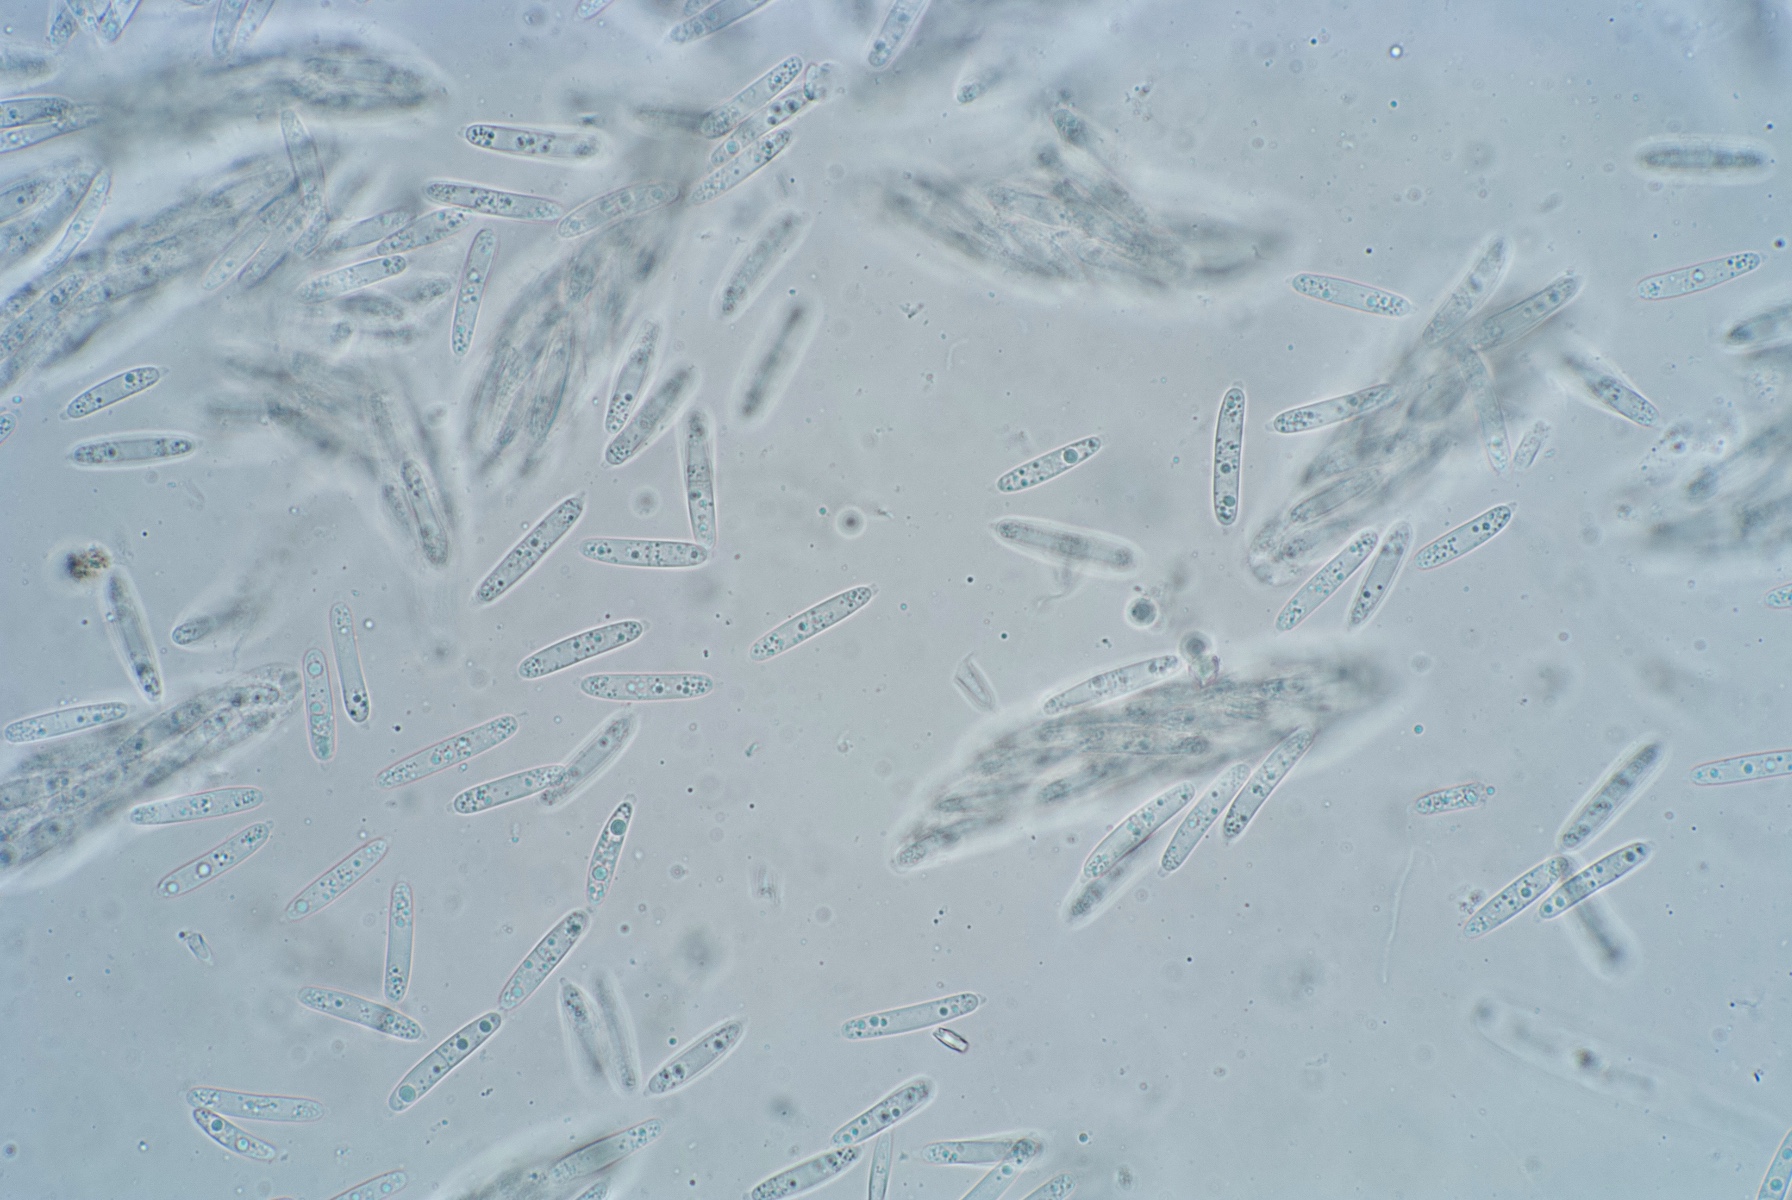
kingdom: Fungi
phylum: Ascomycota
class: Sordariomycetes
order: Diaporthales
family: Gnomoniaceae
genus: Ditopella
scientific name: Ditopella ditopa
